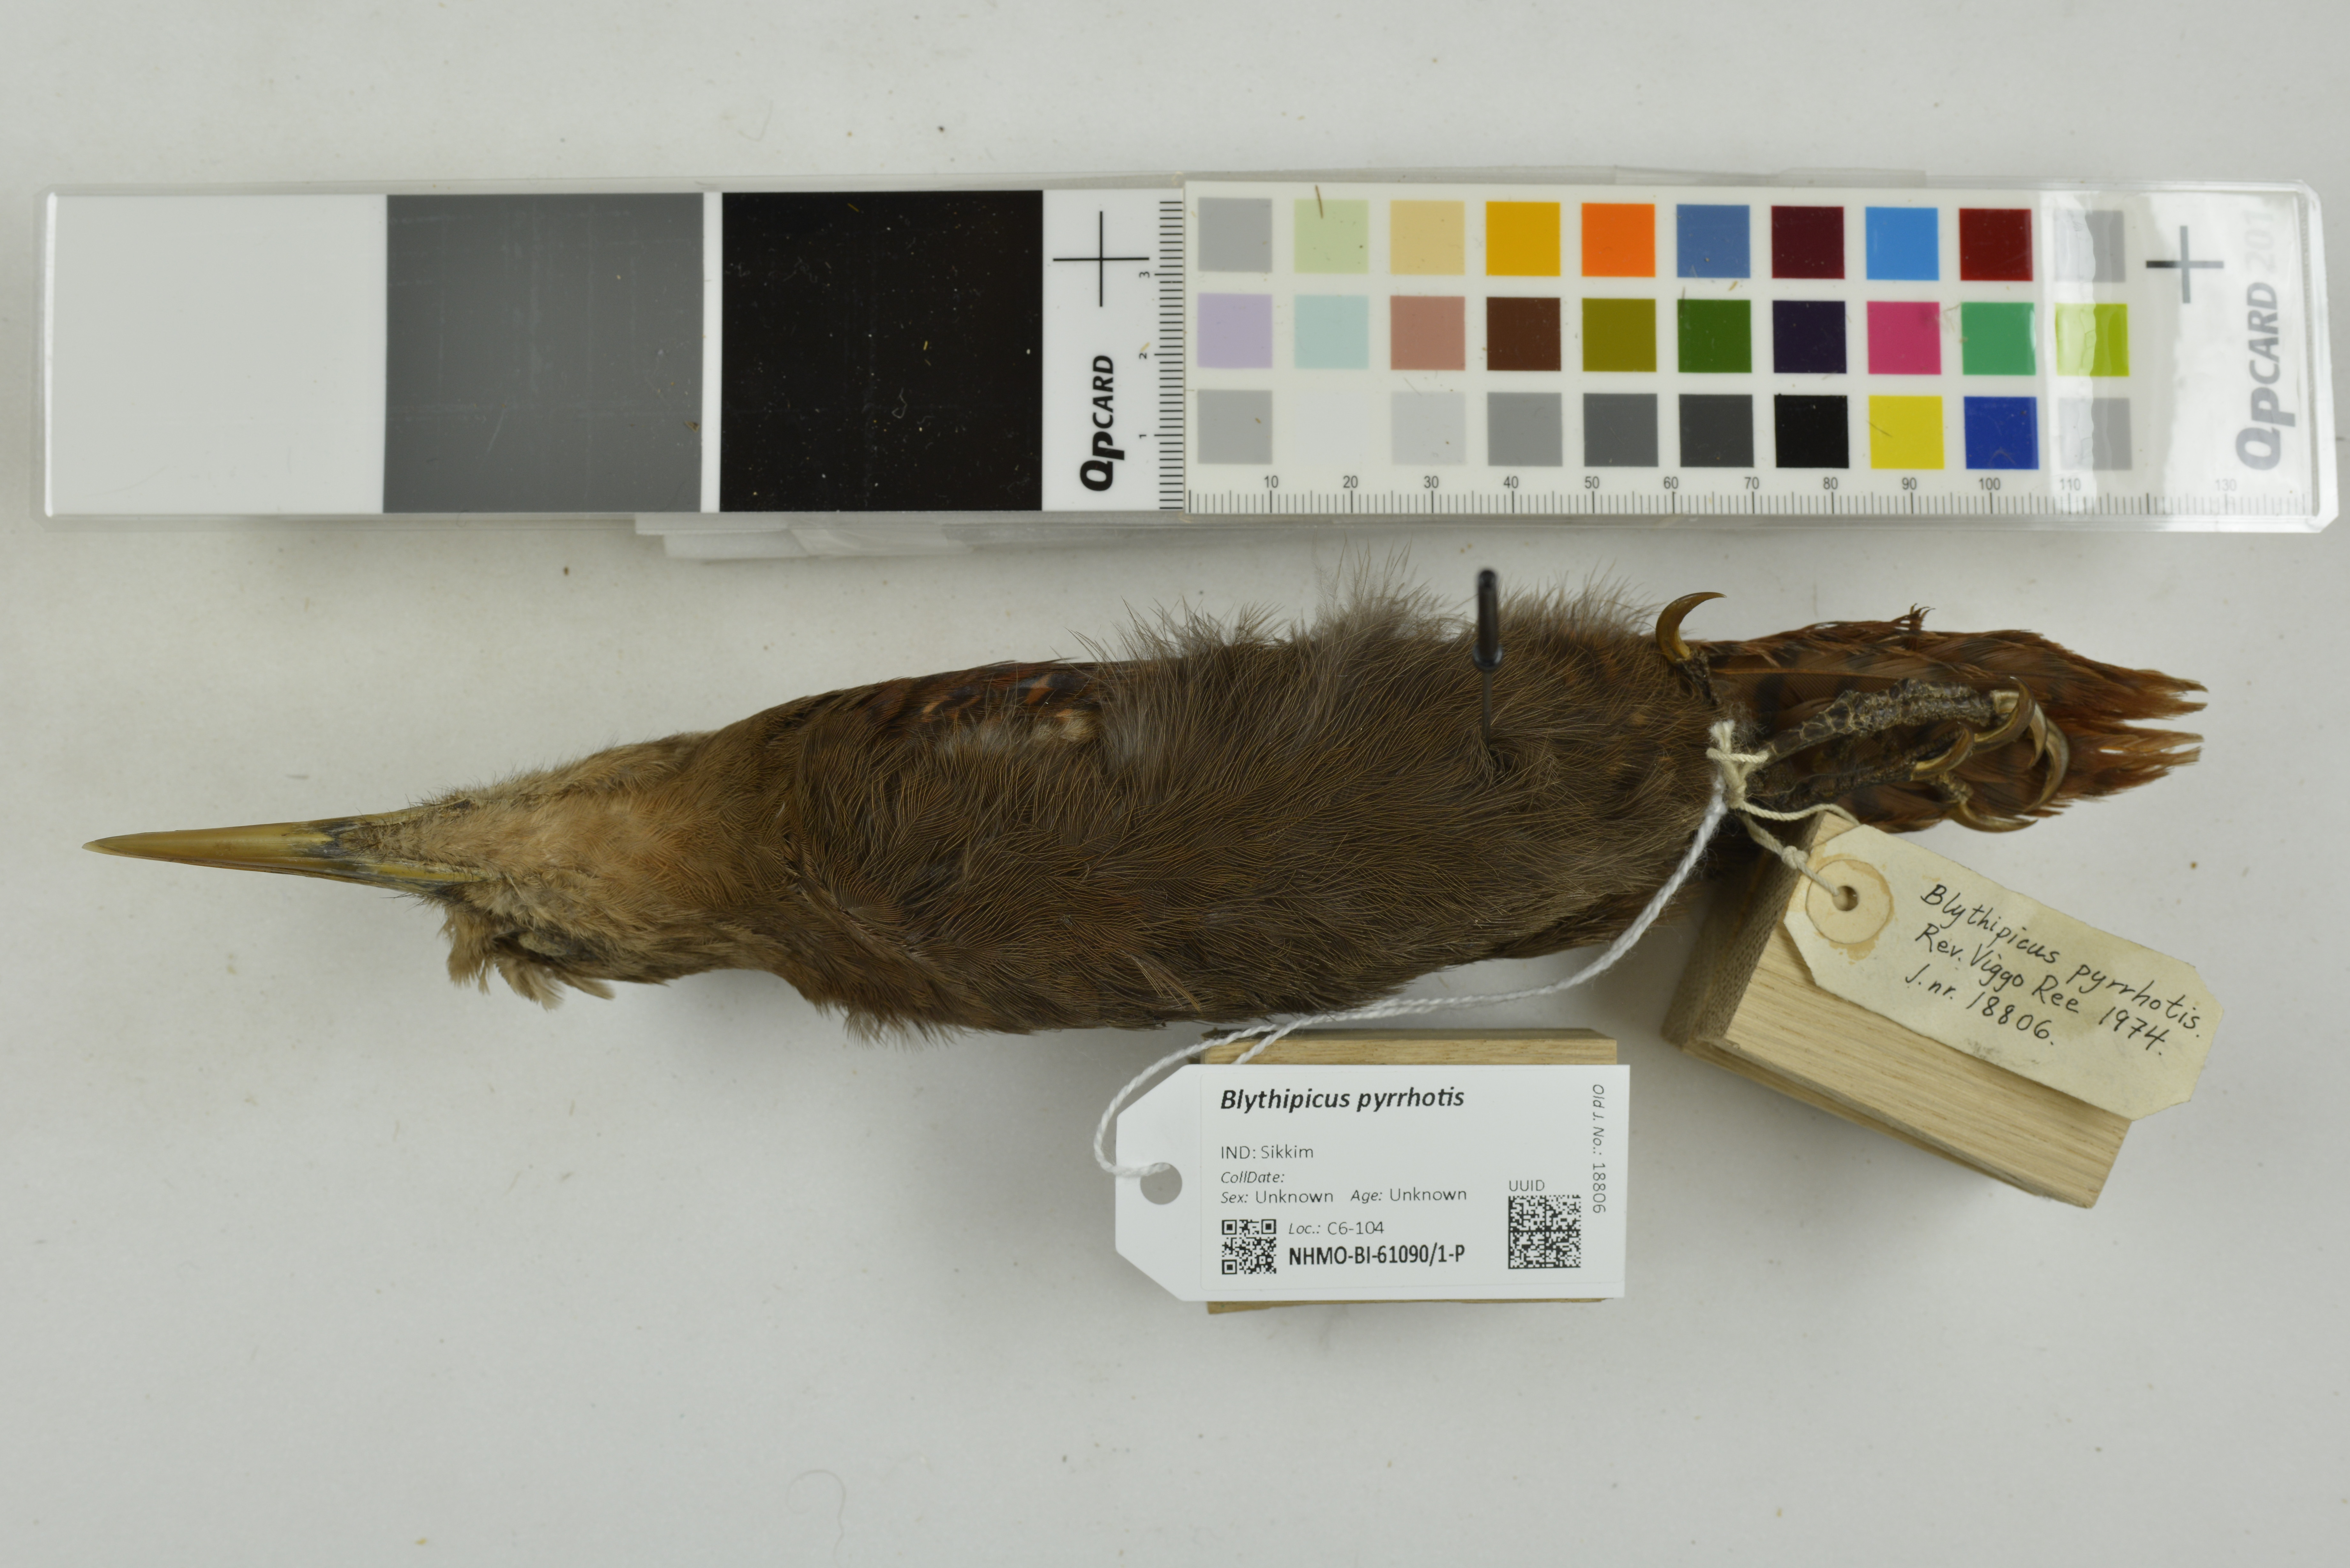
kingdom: Animalia
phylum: Chordata
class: Aves
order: Piciformes
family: Picidae
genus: Blythipicus
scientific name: Blythipicus pyrrhotis
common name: Bay woodpecker
